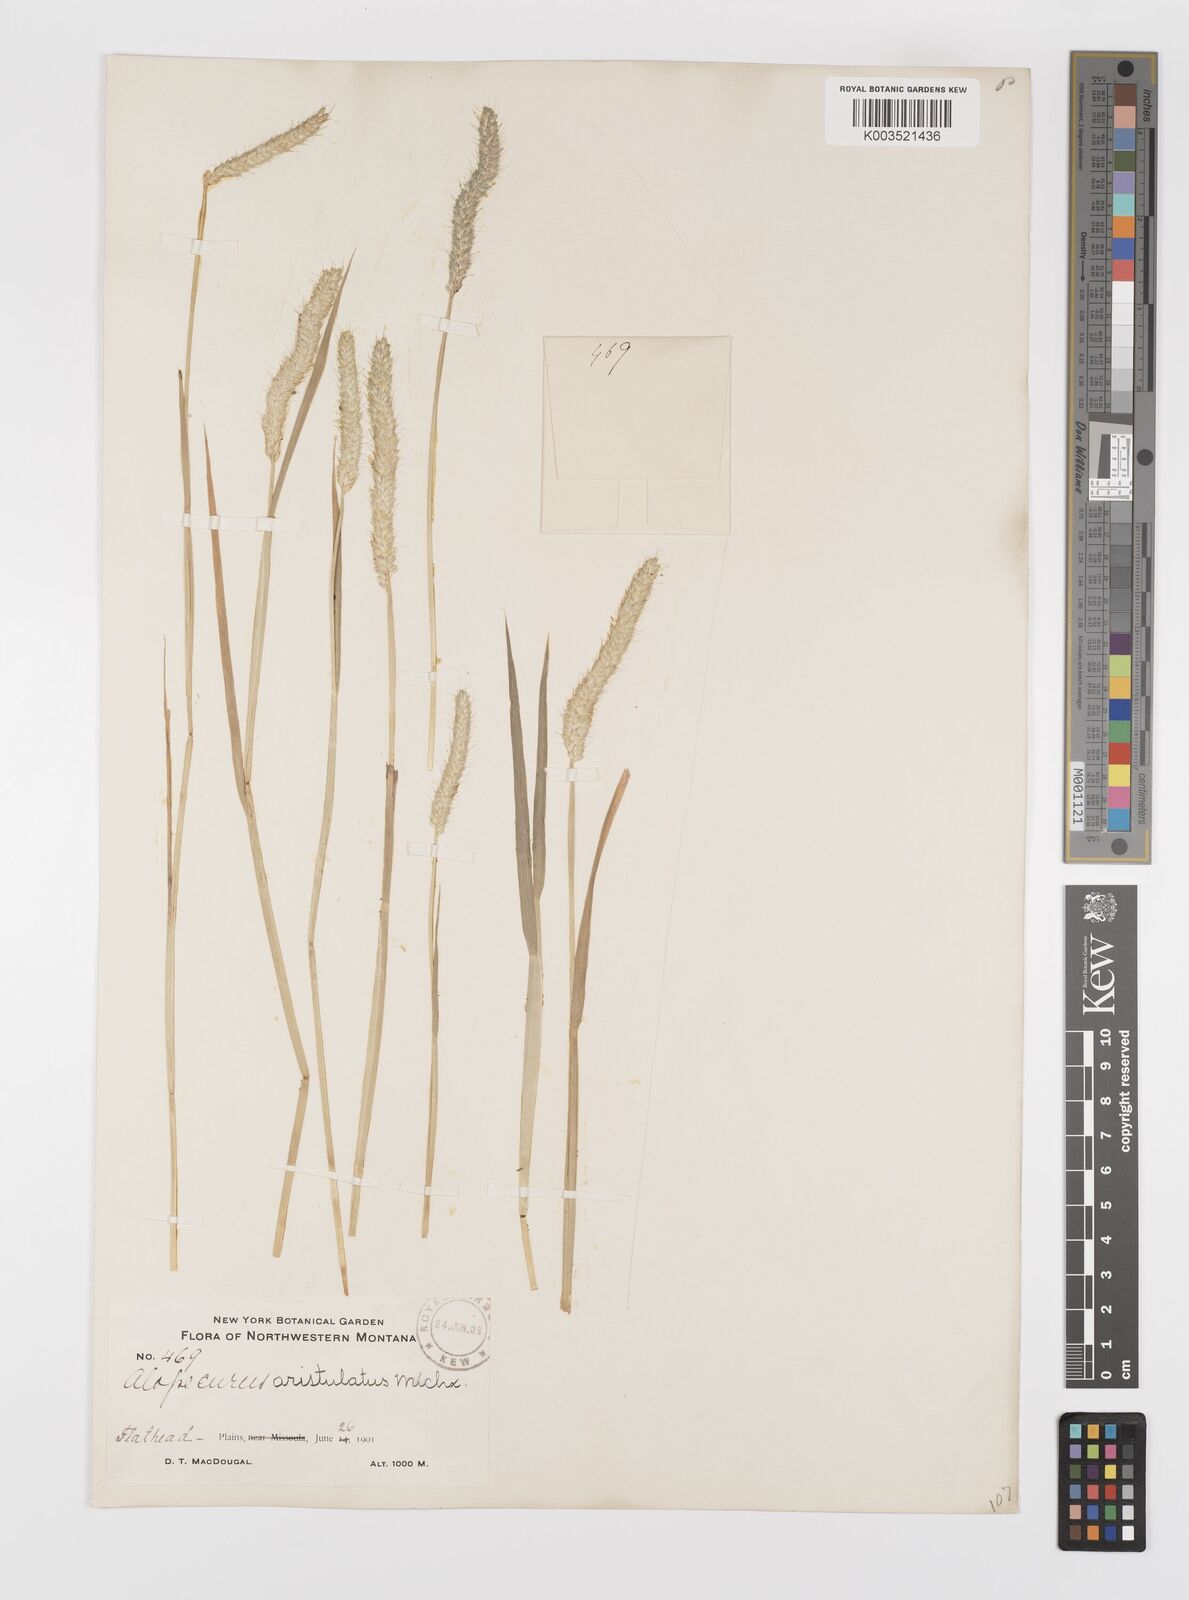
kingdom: Plantae
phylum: Tracheophyta
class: Liliopsida
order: Poales
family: Poaceae
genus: Alopecurus
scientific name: Alopecurus saccatus
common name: Pacific foxtail
